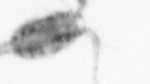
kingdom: Animalia
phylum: Arthropoda
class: Copepoda
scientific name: Copepoda
